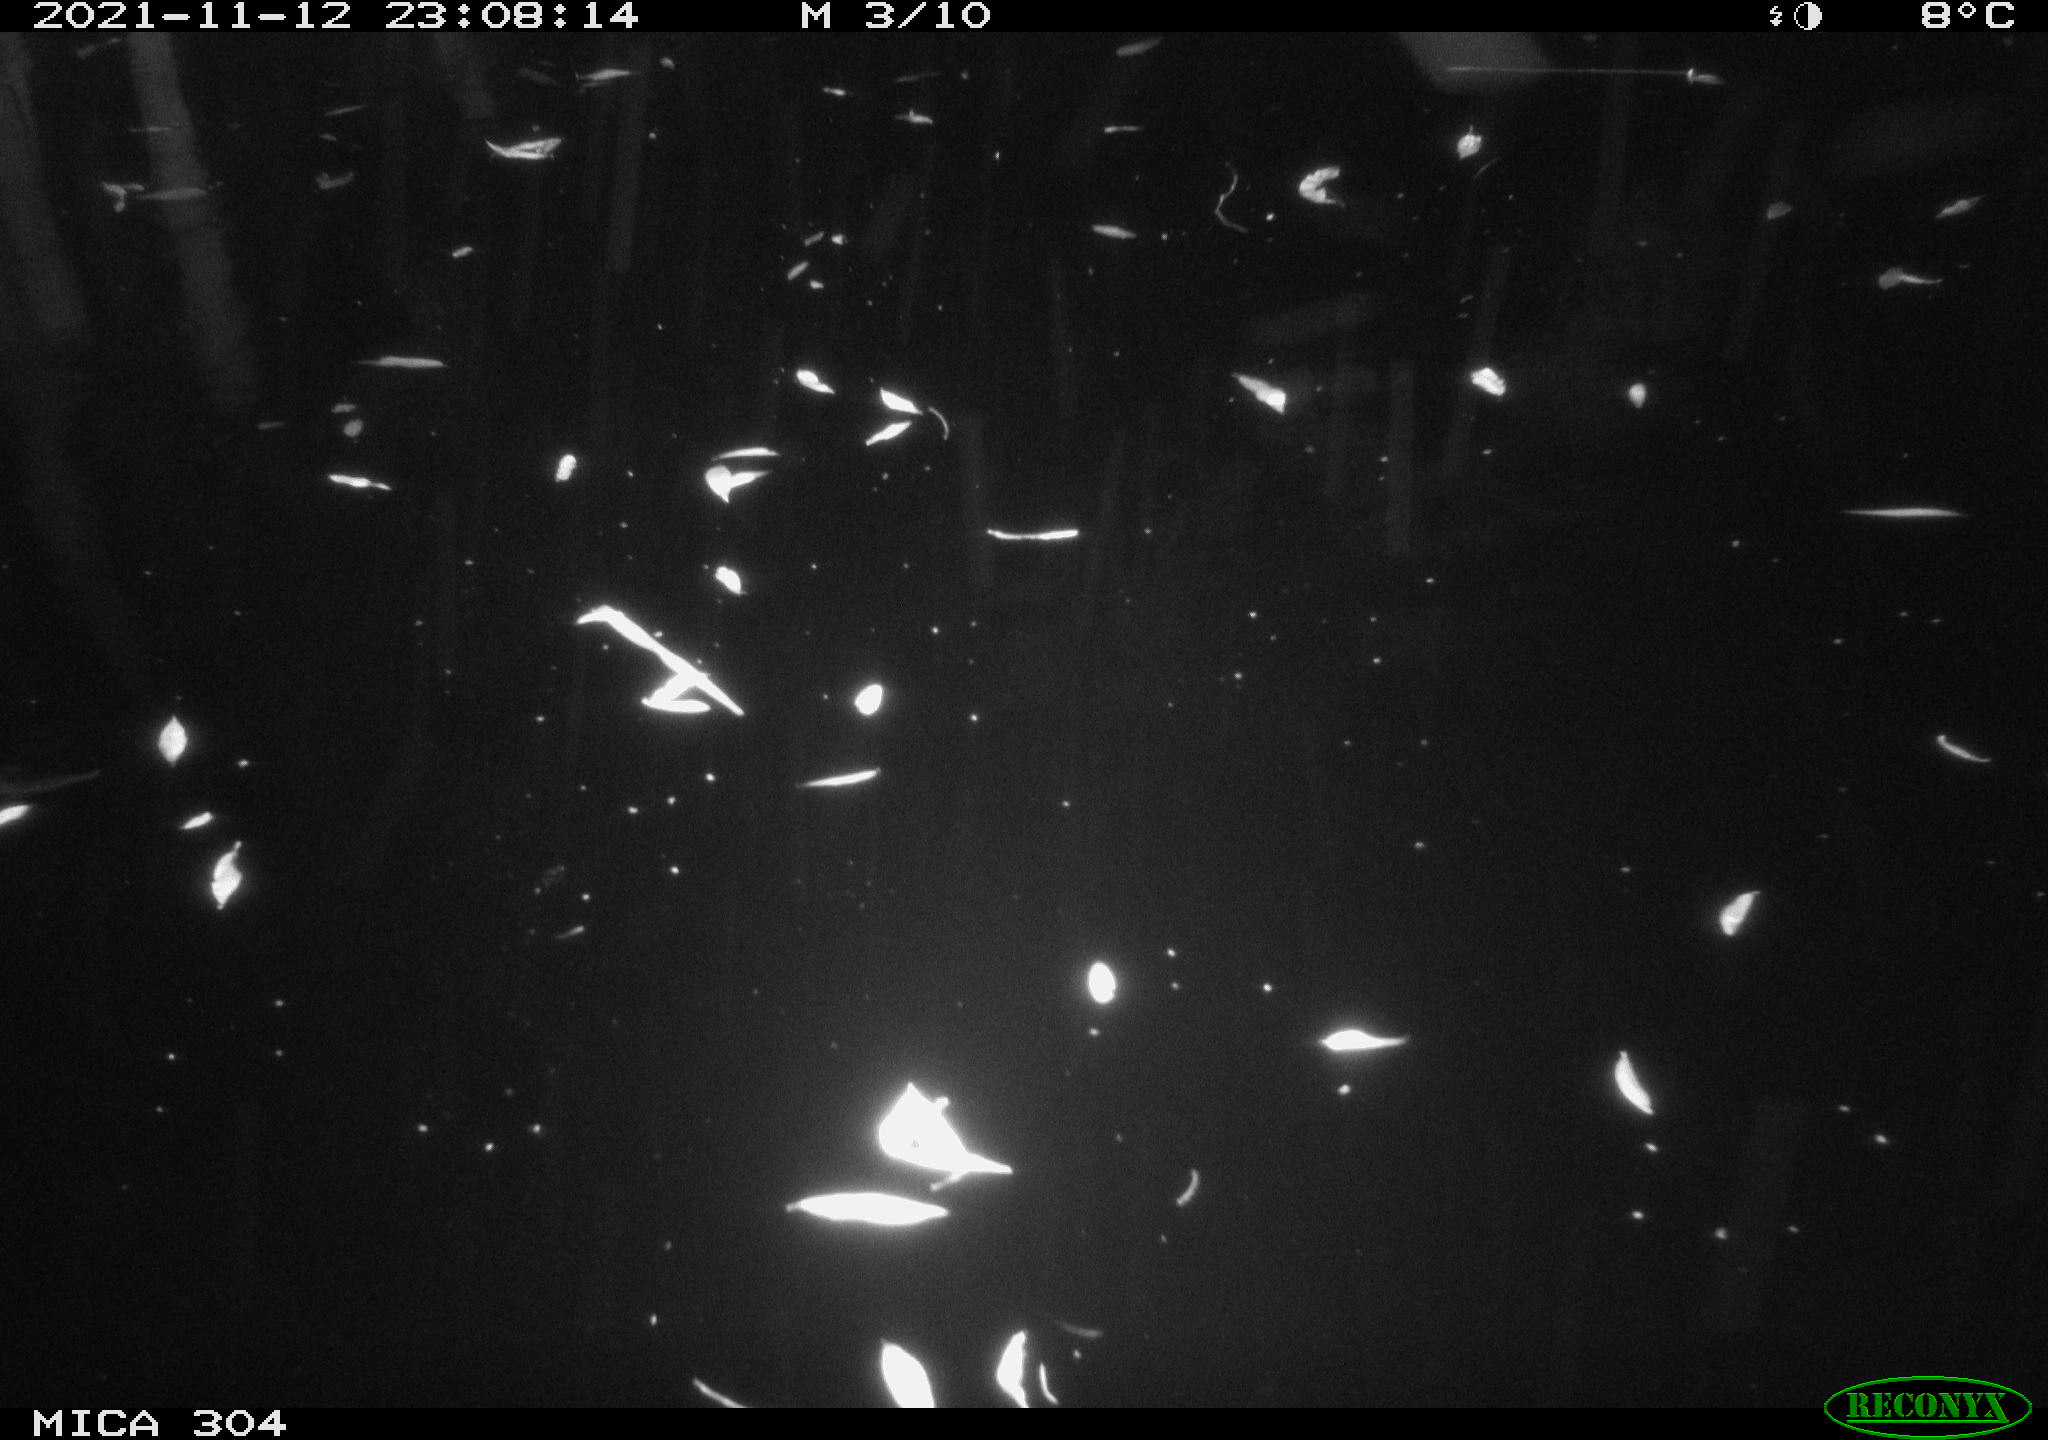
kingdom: Animalia
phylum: Chordata
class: Aves
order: Anseriformes
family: Anatidae
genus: Anas
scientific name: Anas platyrhynchos
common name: Mallard
